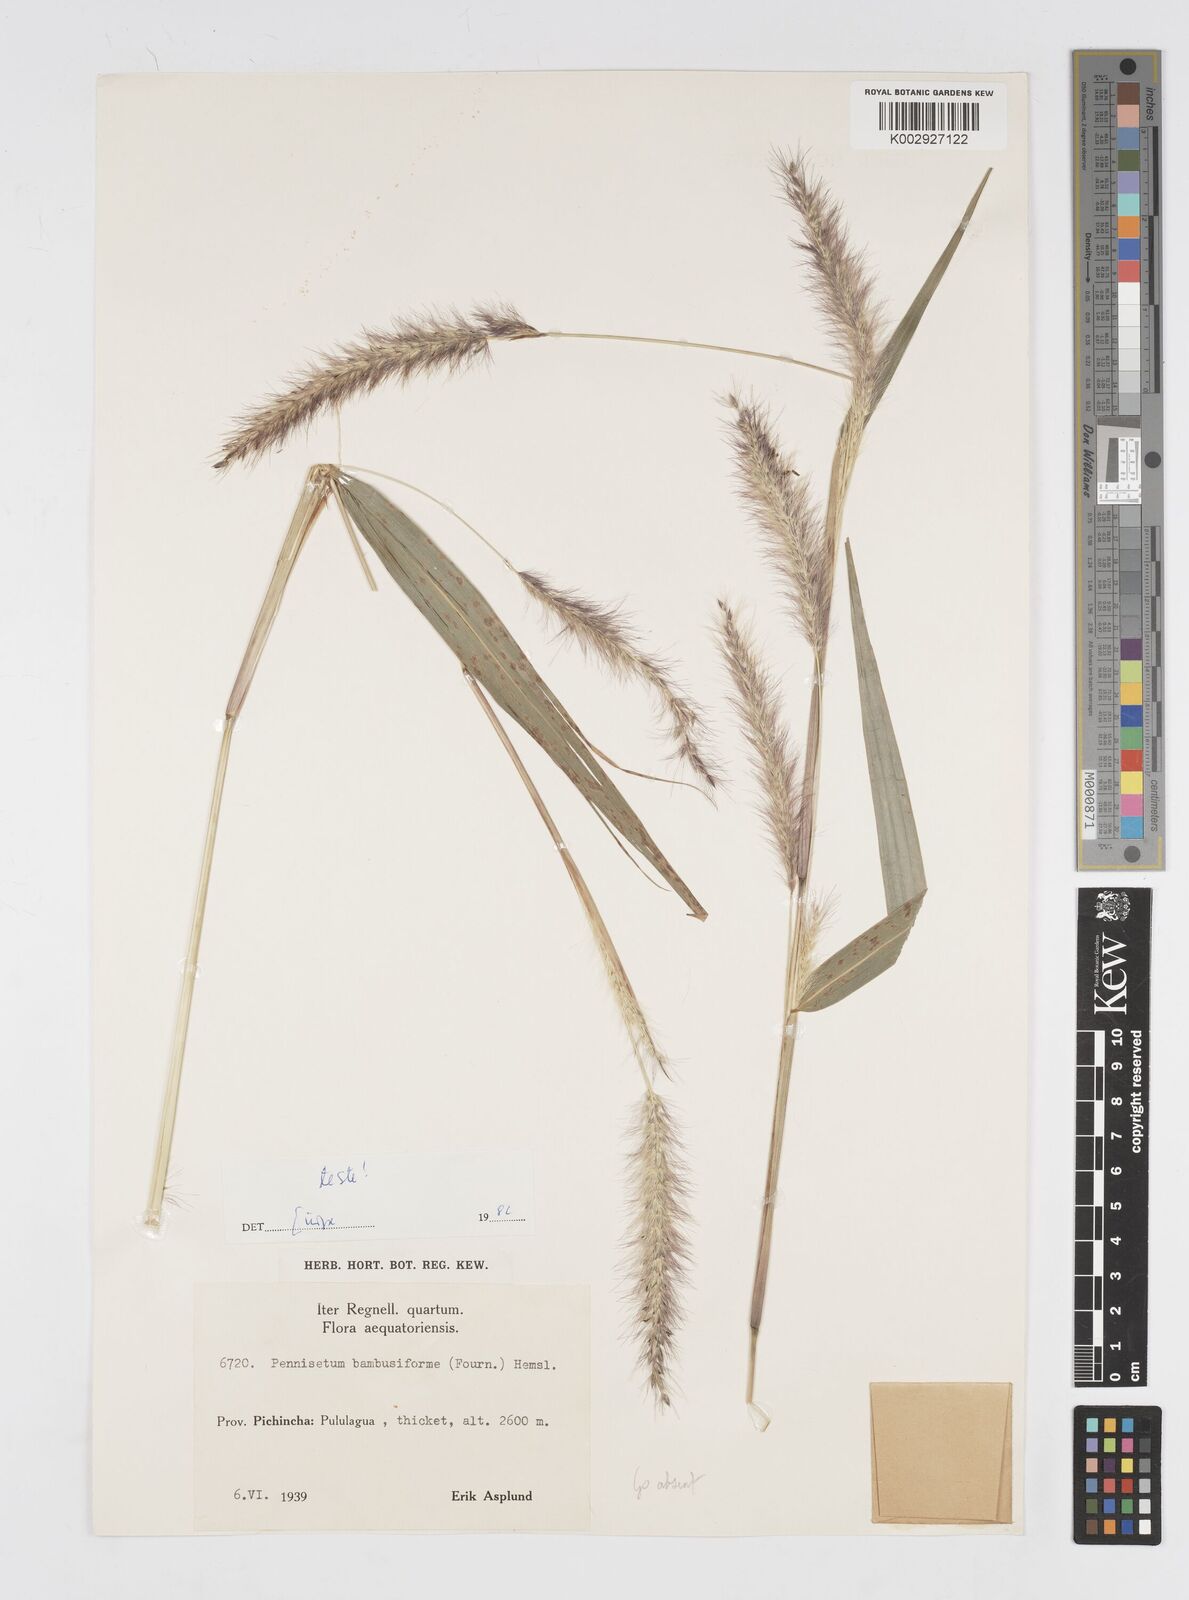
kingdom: Plantae
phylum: Tracheophyta
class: Liliopsida
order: Poales
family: Poaceae
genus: Cenchrus
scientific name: Cenchrus tristachyus
